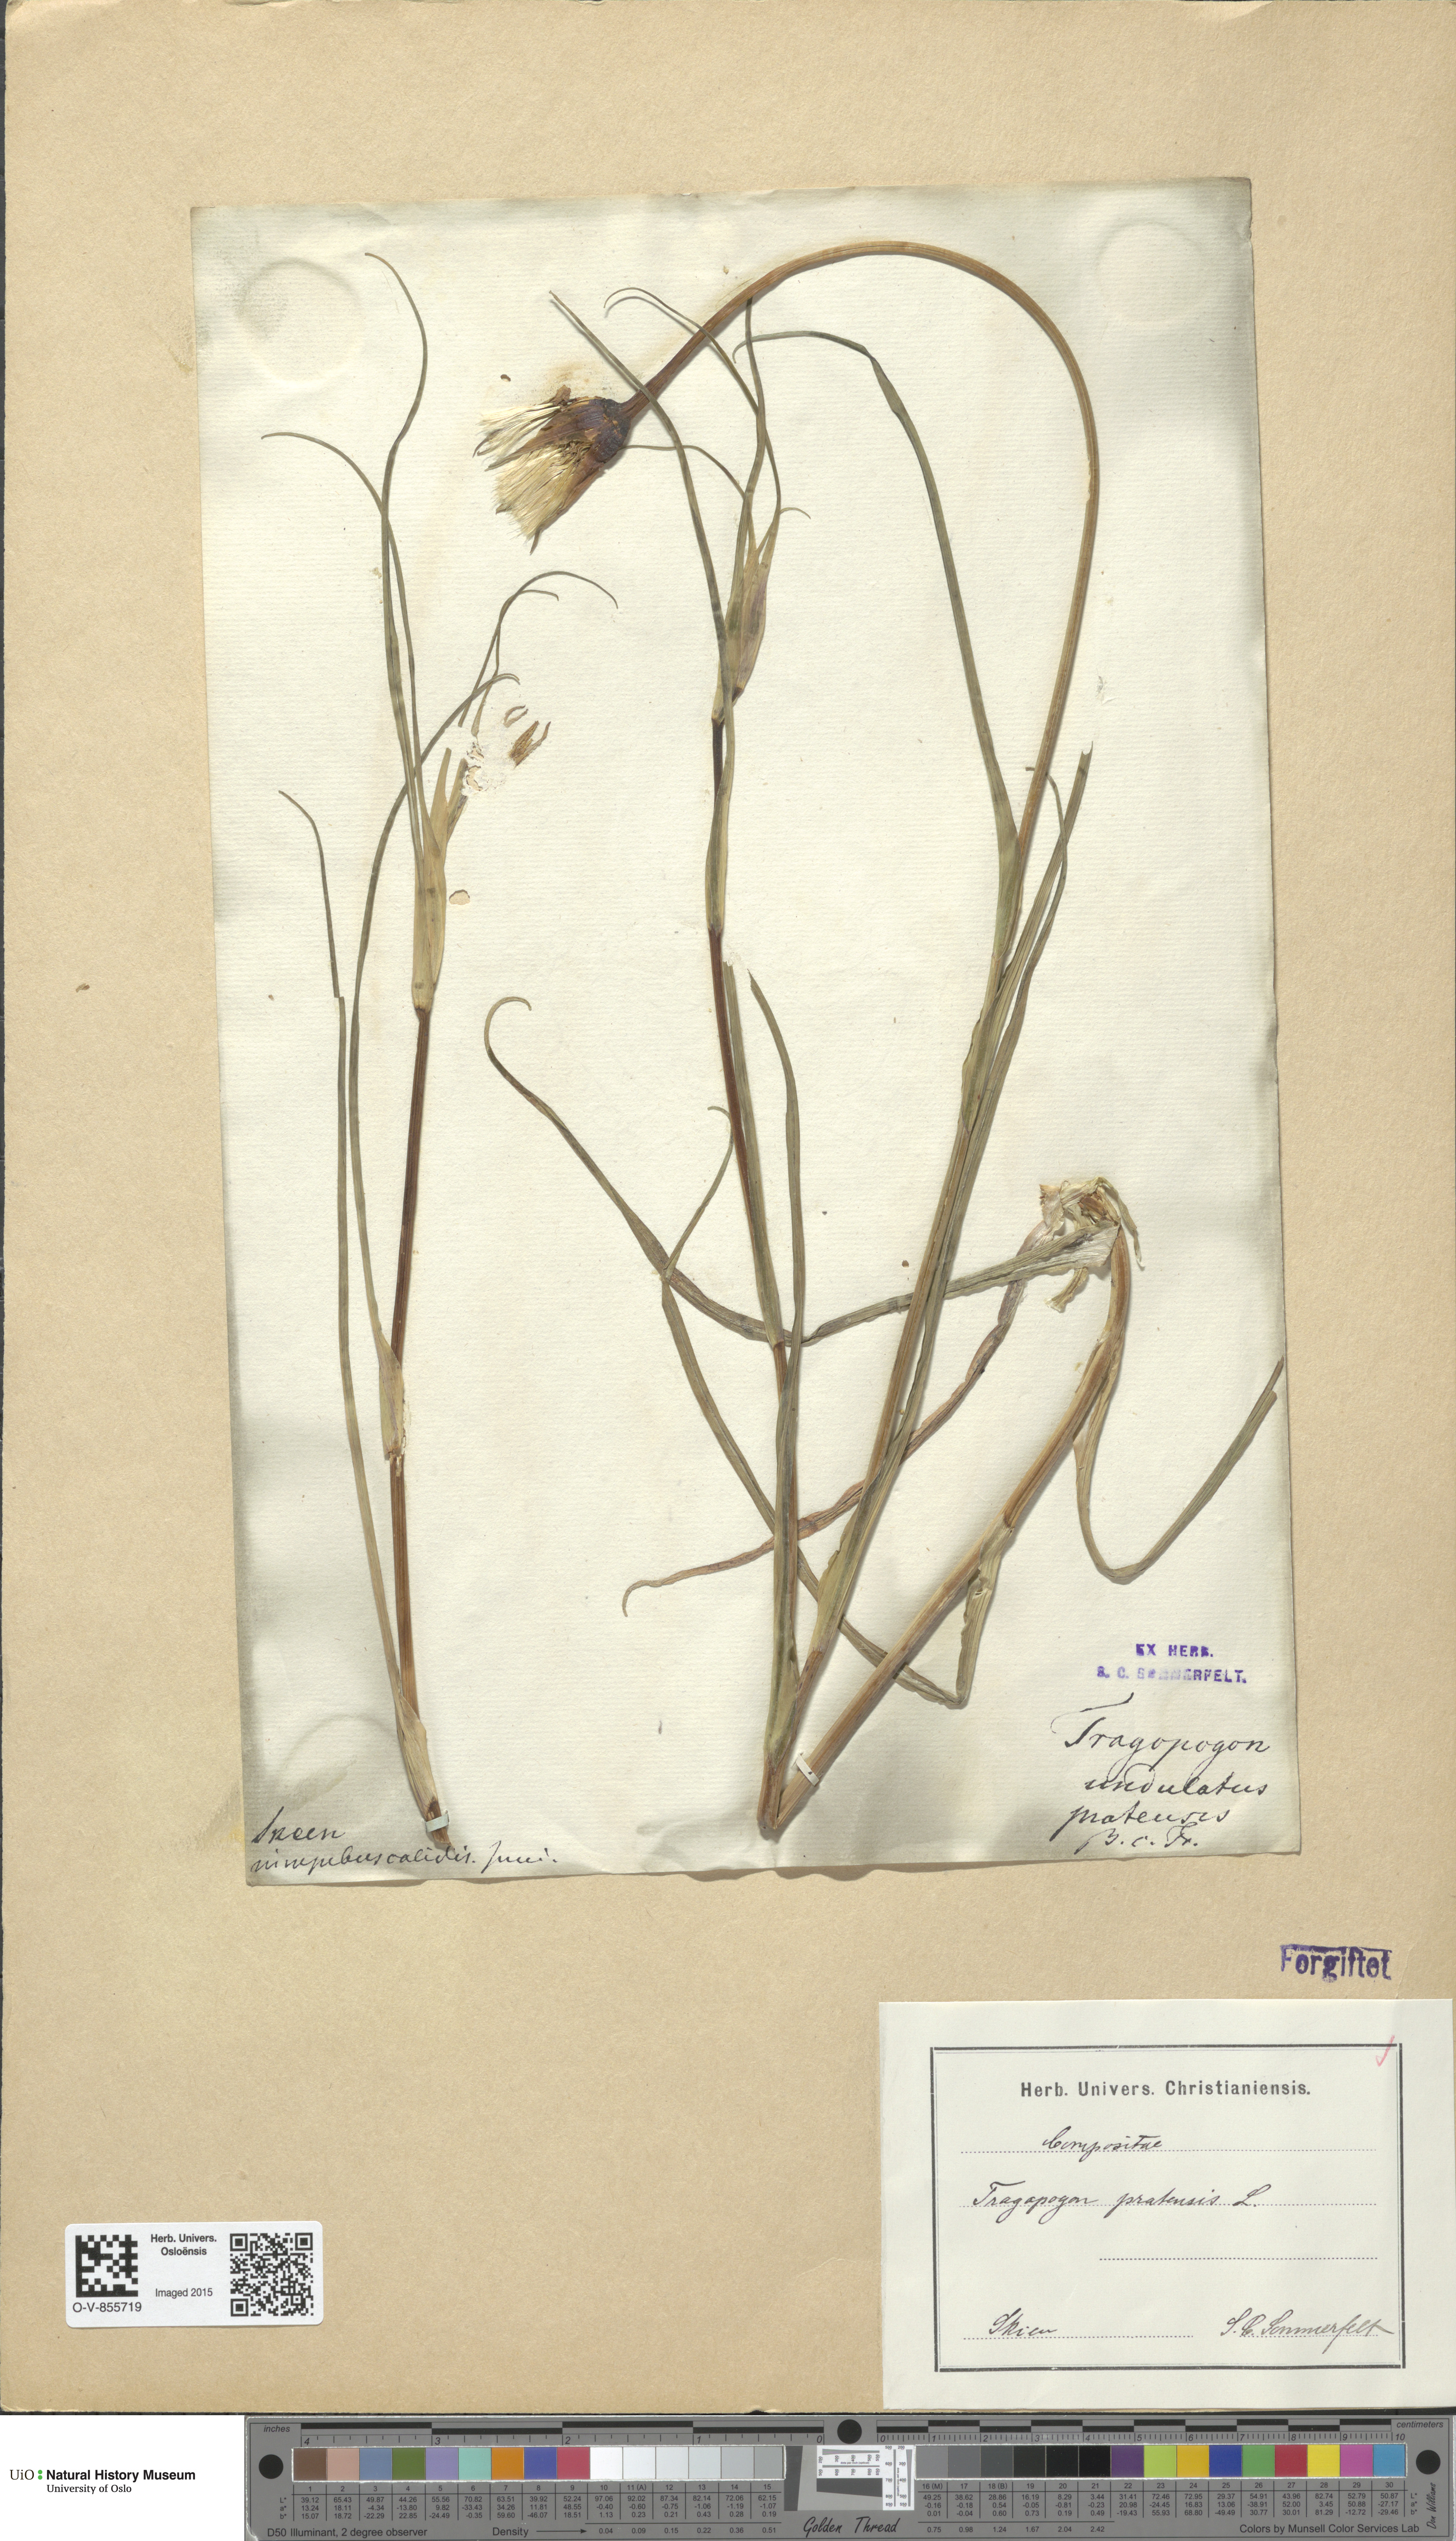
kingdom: Plantae
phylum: Tracheophyta
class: Magnoliopsida
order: Asterales
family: Asteraceae
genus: Tragopogon
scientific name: Tragopogon pratensis
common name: Goat's-beard
